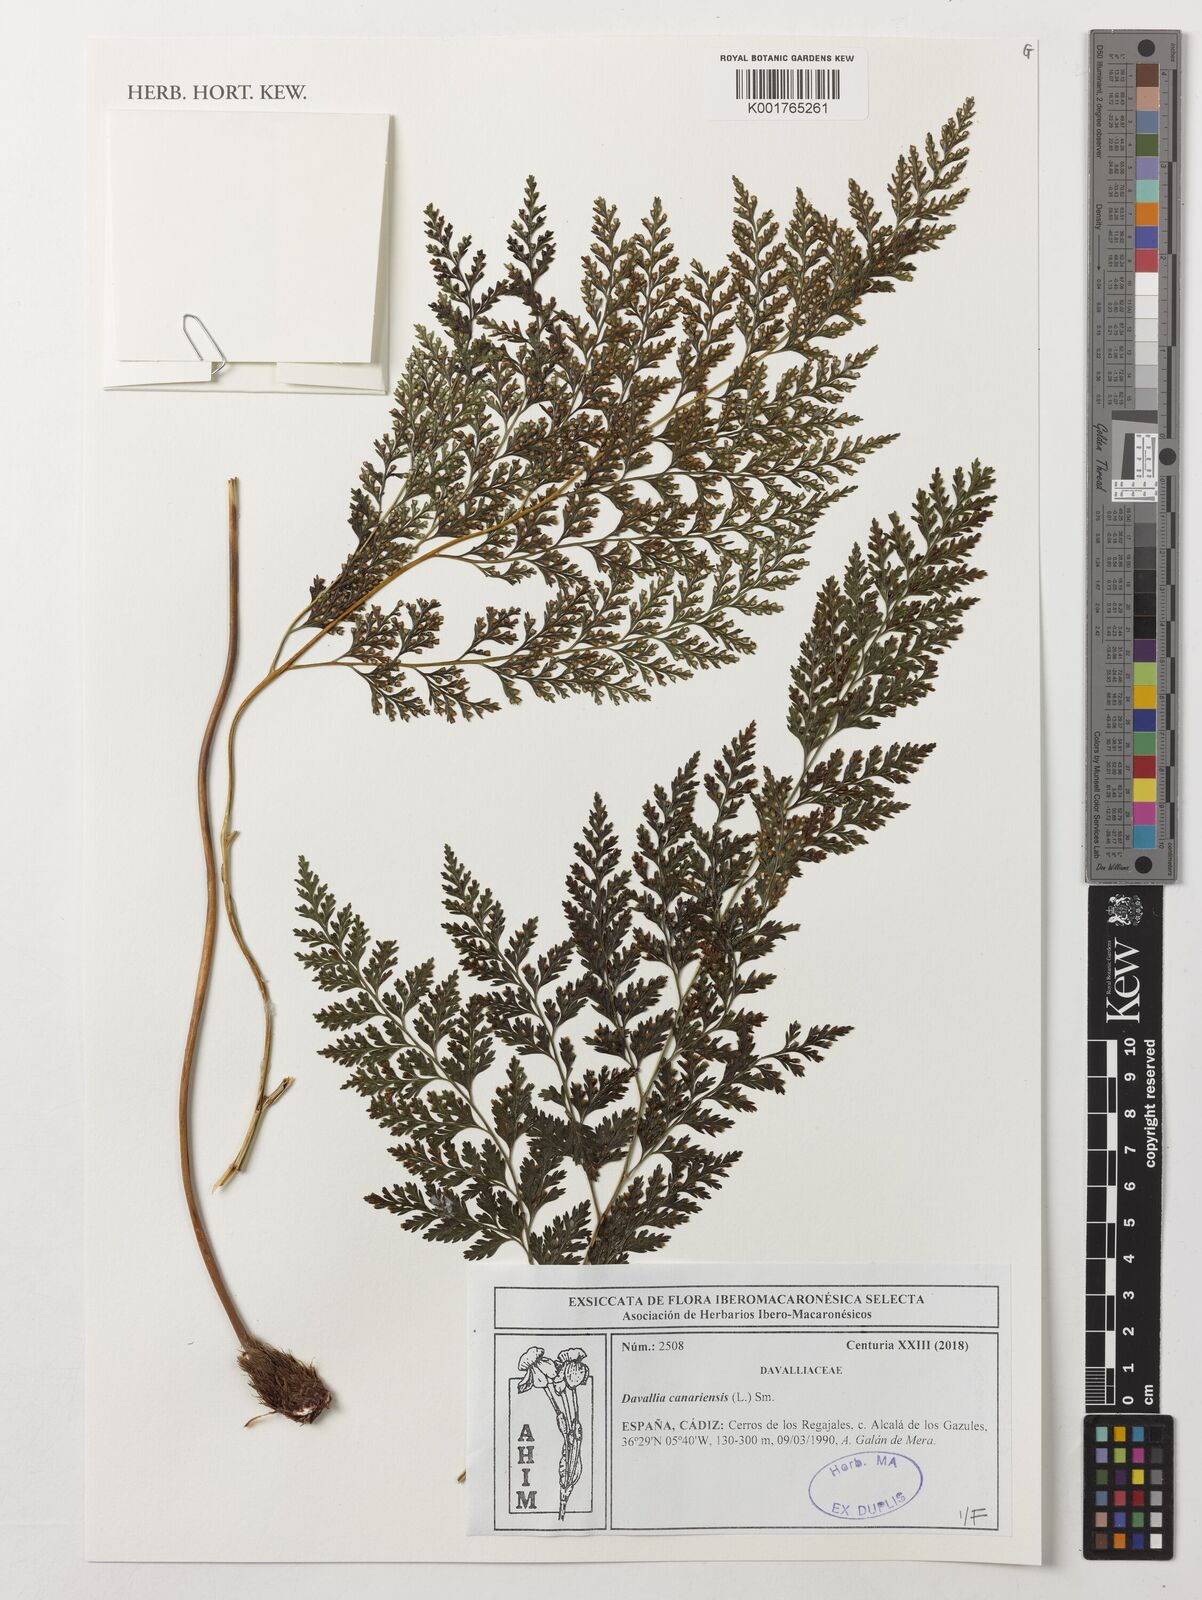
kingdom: Plantae
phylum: Tracheophyta
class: Polypodiopsida
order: Polypodiales
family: Davalliaceae
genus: Davallia
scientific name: Davallia canariensis
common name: Hare's-foot fern
